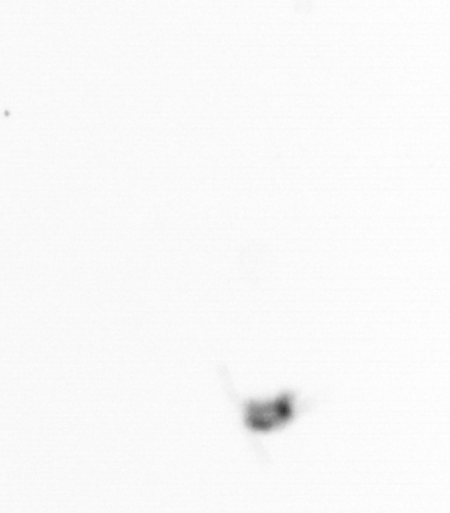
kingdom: Animalia
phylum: Arthropoda
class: Copepoda
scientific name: Copepoda
